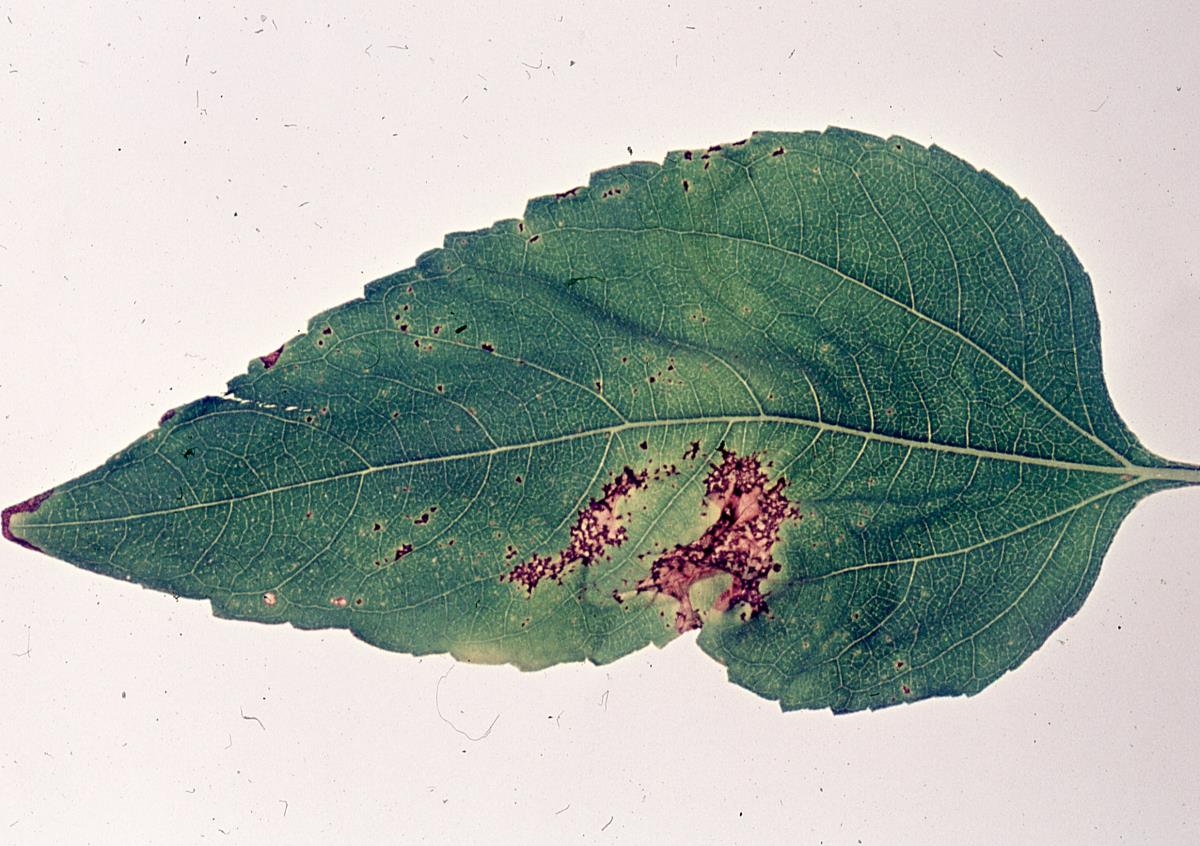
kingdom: Bacteria
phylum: Proteobacteria
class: Gammaproteobacteria
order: Pseudomonadales
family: Pseudomonadaceae
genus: Pseudomonas
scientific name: Pseudomonas syringae
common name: Bacterial speck
